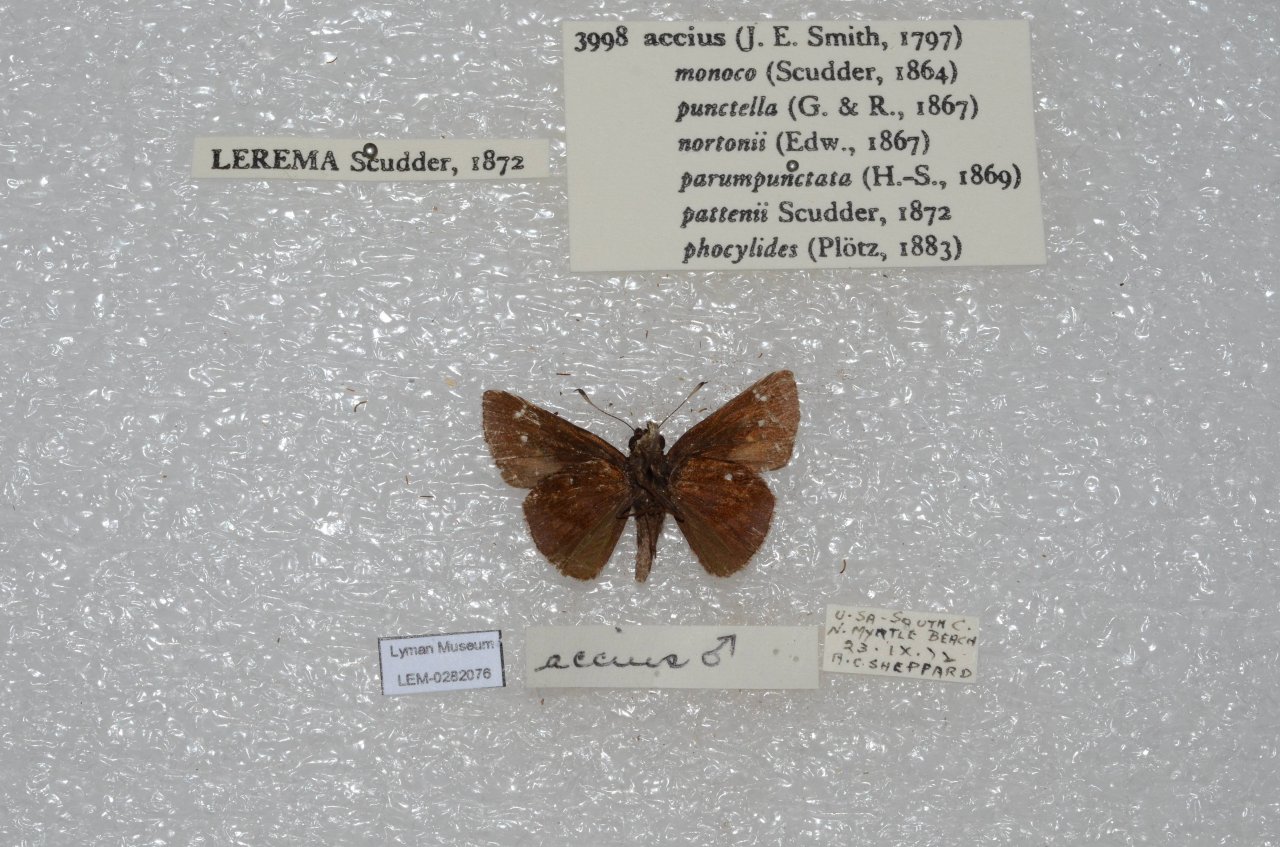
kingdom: Animalia
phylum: Arthropoda
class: Insecta
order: Lepidoptera
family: Hesperiidae
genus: Lerema
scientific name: Lerema accius
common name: Clouded Skipper
